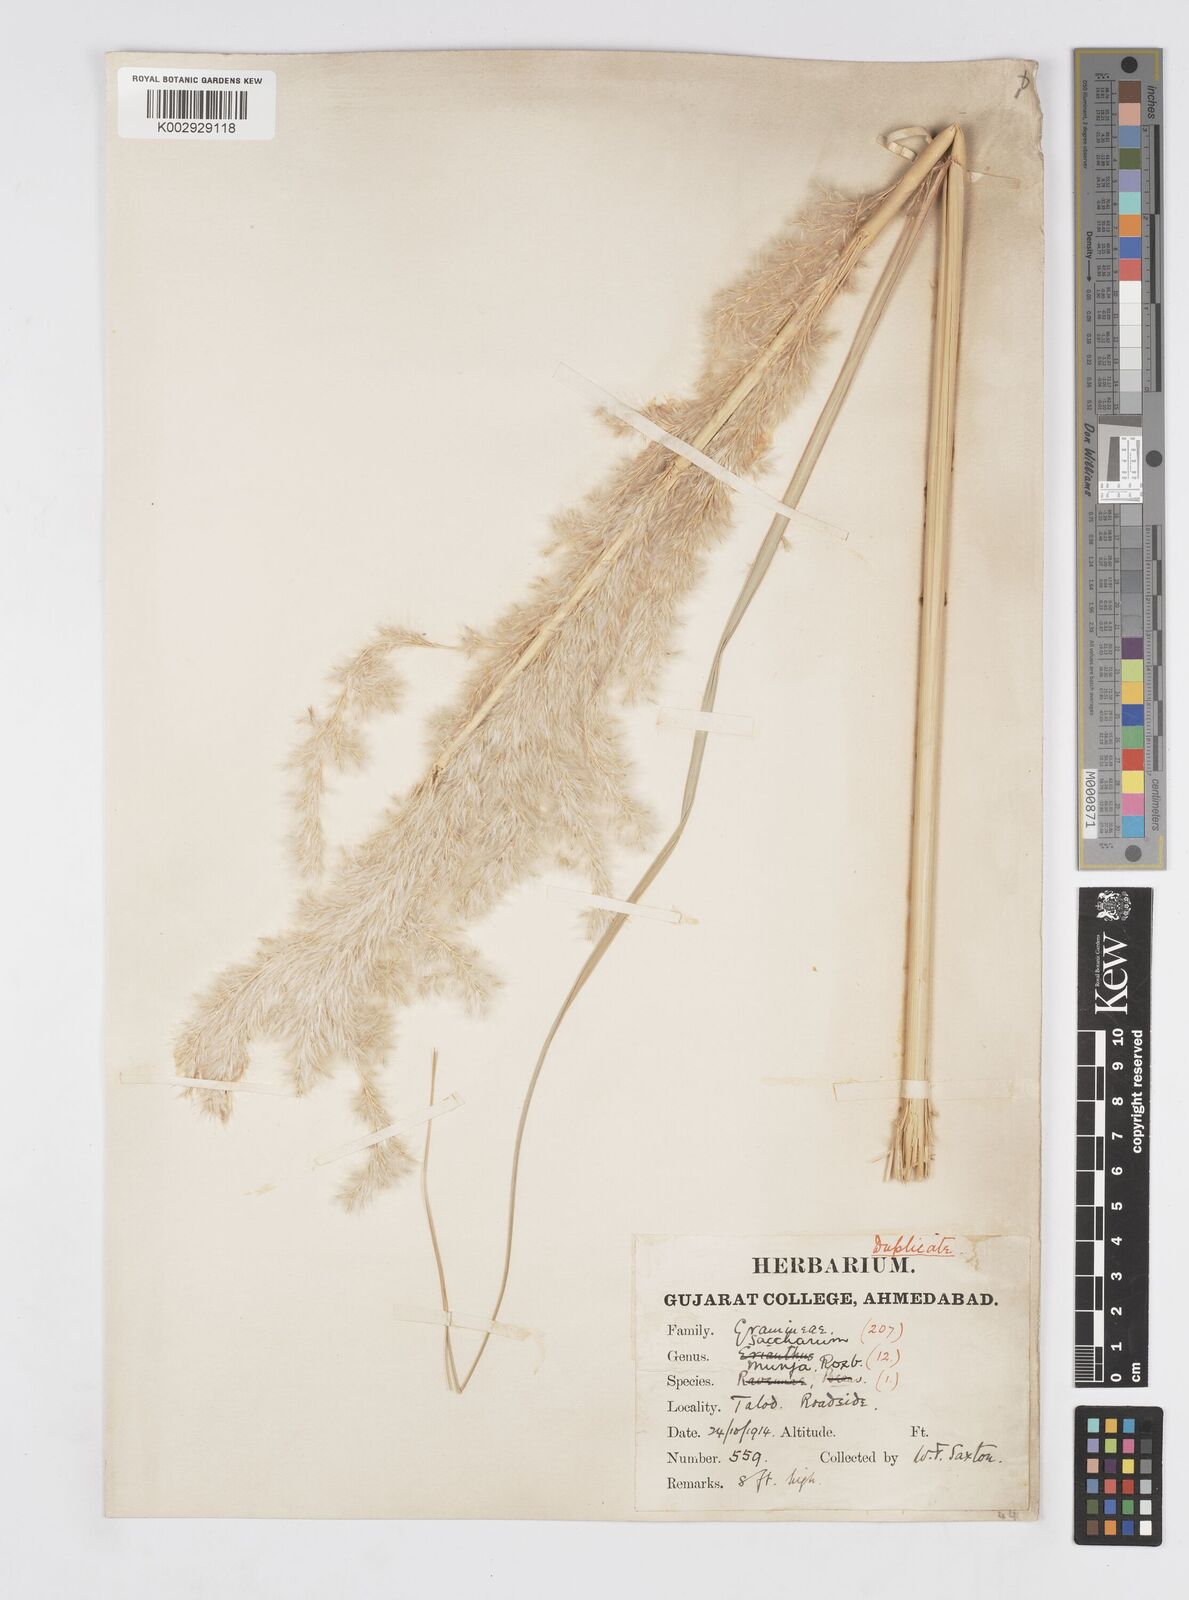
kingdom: Plantae
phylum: Tracheophyta
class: Liliopsida
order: Poales
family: Poaceae
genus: Tripidium
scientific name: Tripidium bengalense
